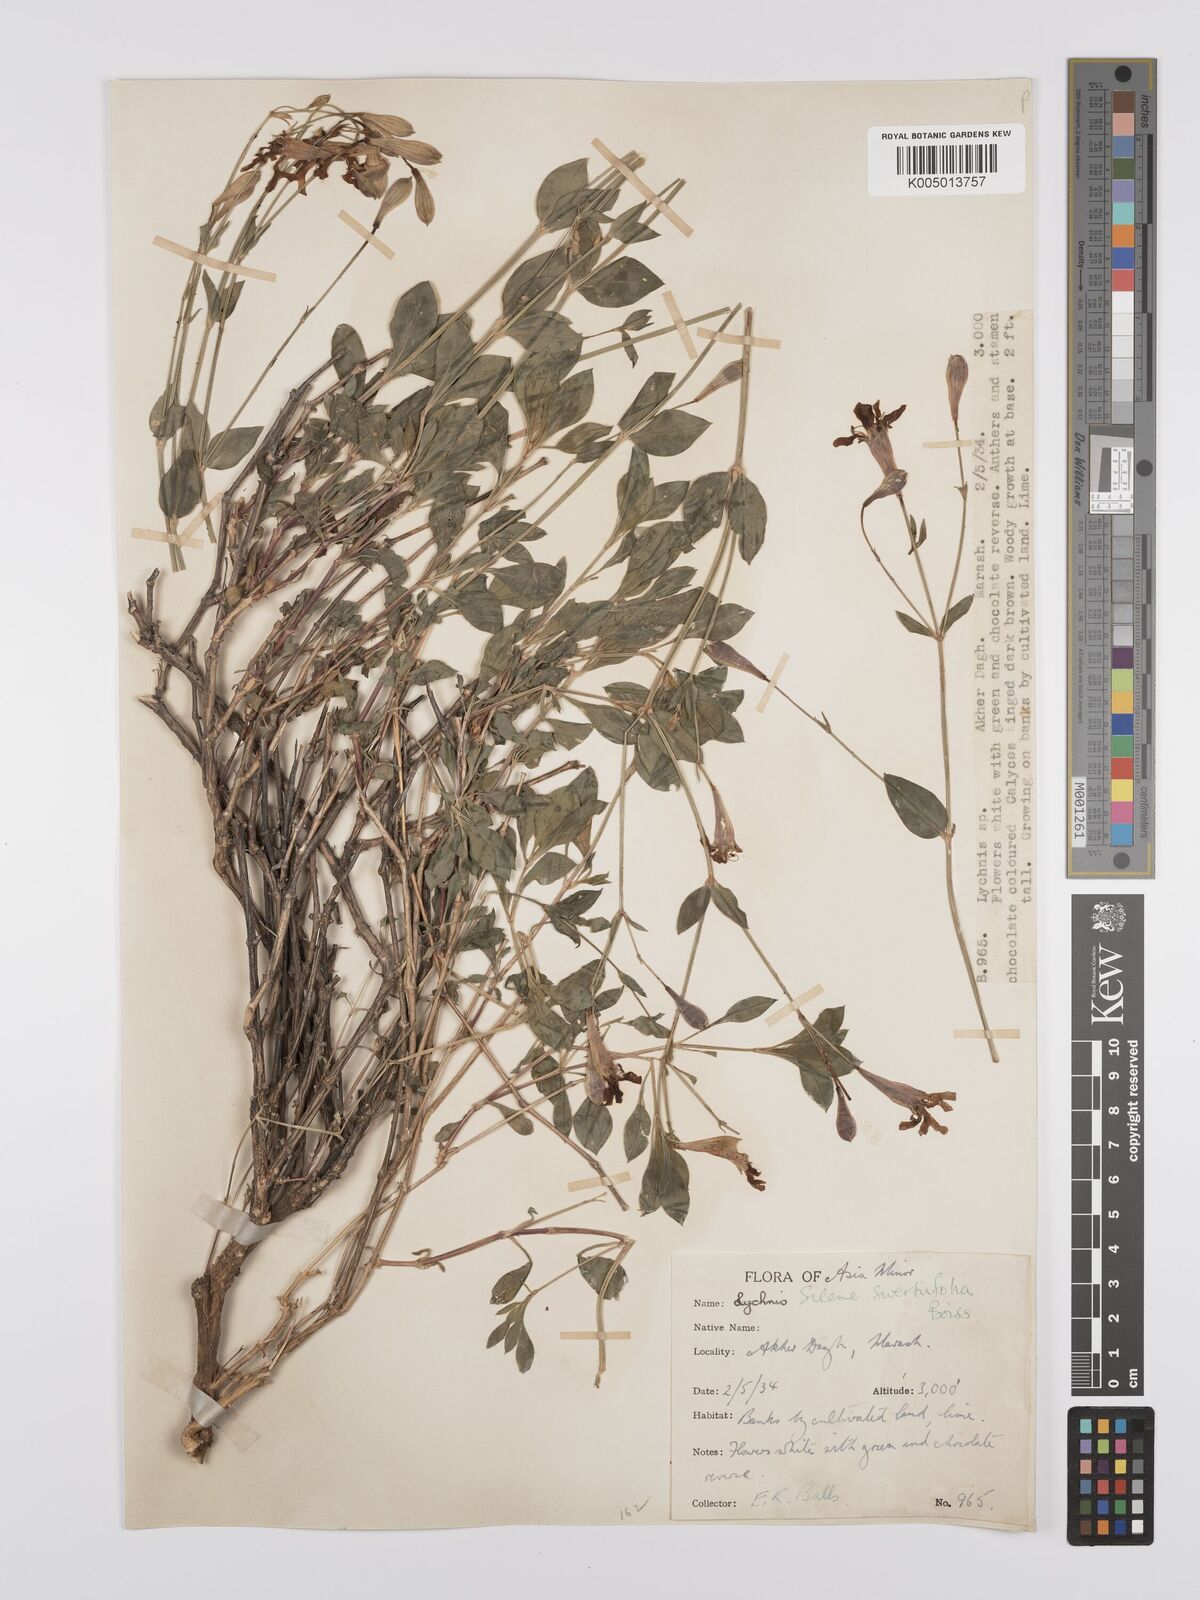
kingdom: Plantae
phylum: Tracheophyta
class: Magnoliopsida
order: Caryophyllales
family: Caryophyllaceae
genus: Silene
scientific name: Silene swertiifolia
